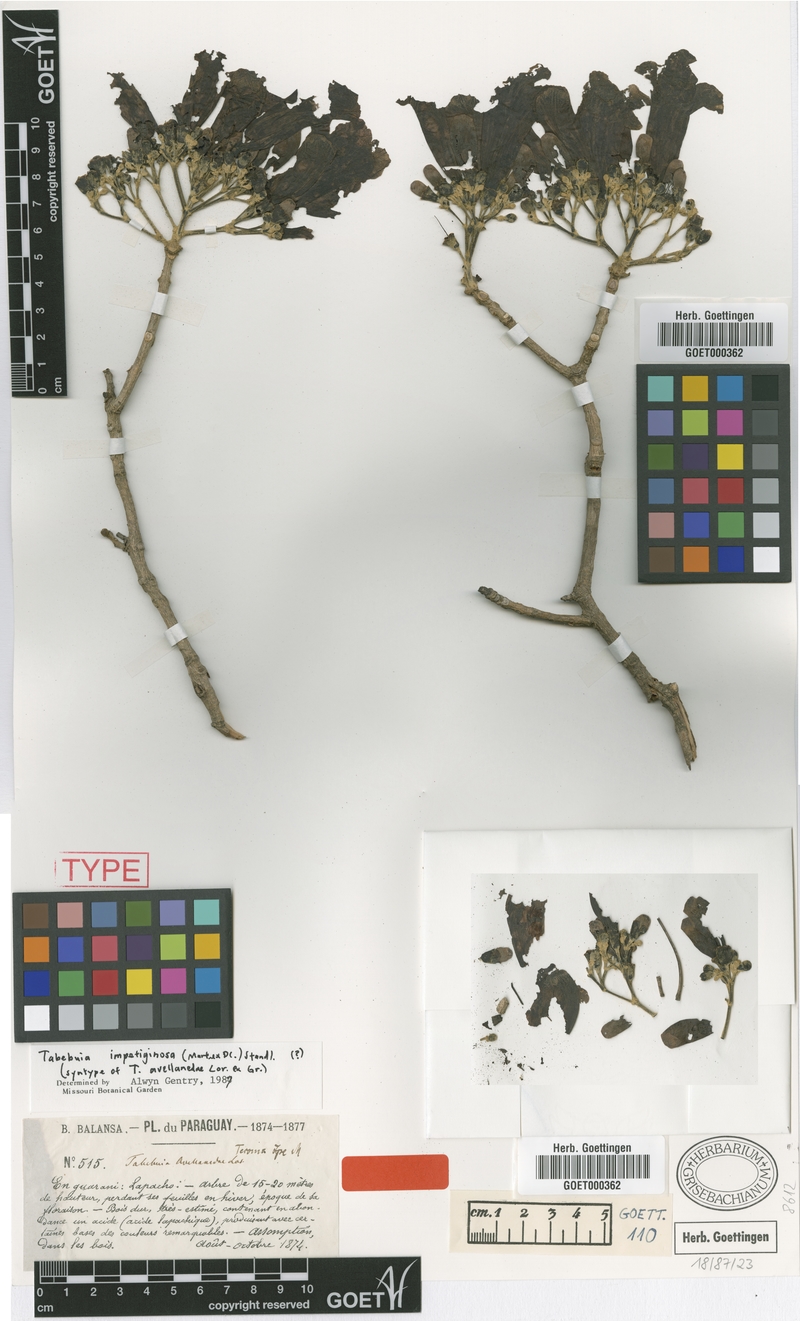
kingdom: Plantae
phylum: Tracheophyta
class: Magnoliopsida
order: Lamiales
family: Bignoniaceae
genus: Handroanthus
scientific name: Handroanthus impetiginosum
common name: Pink trumpet tree
